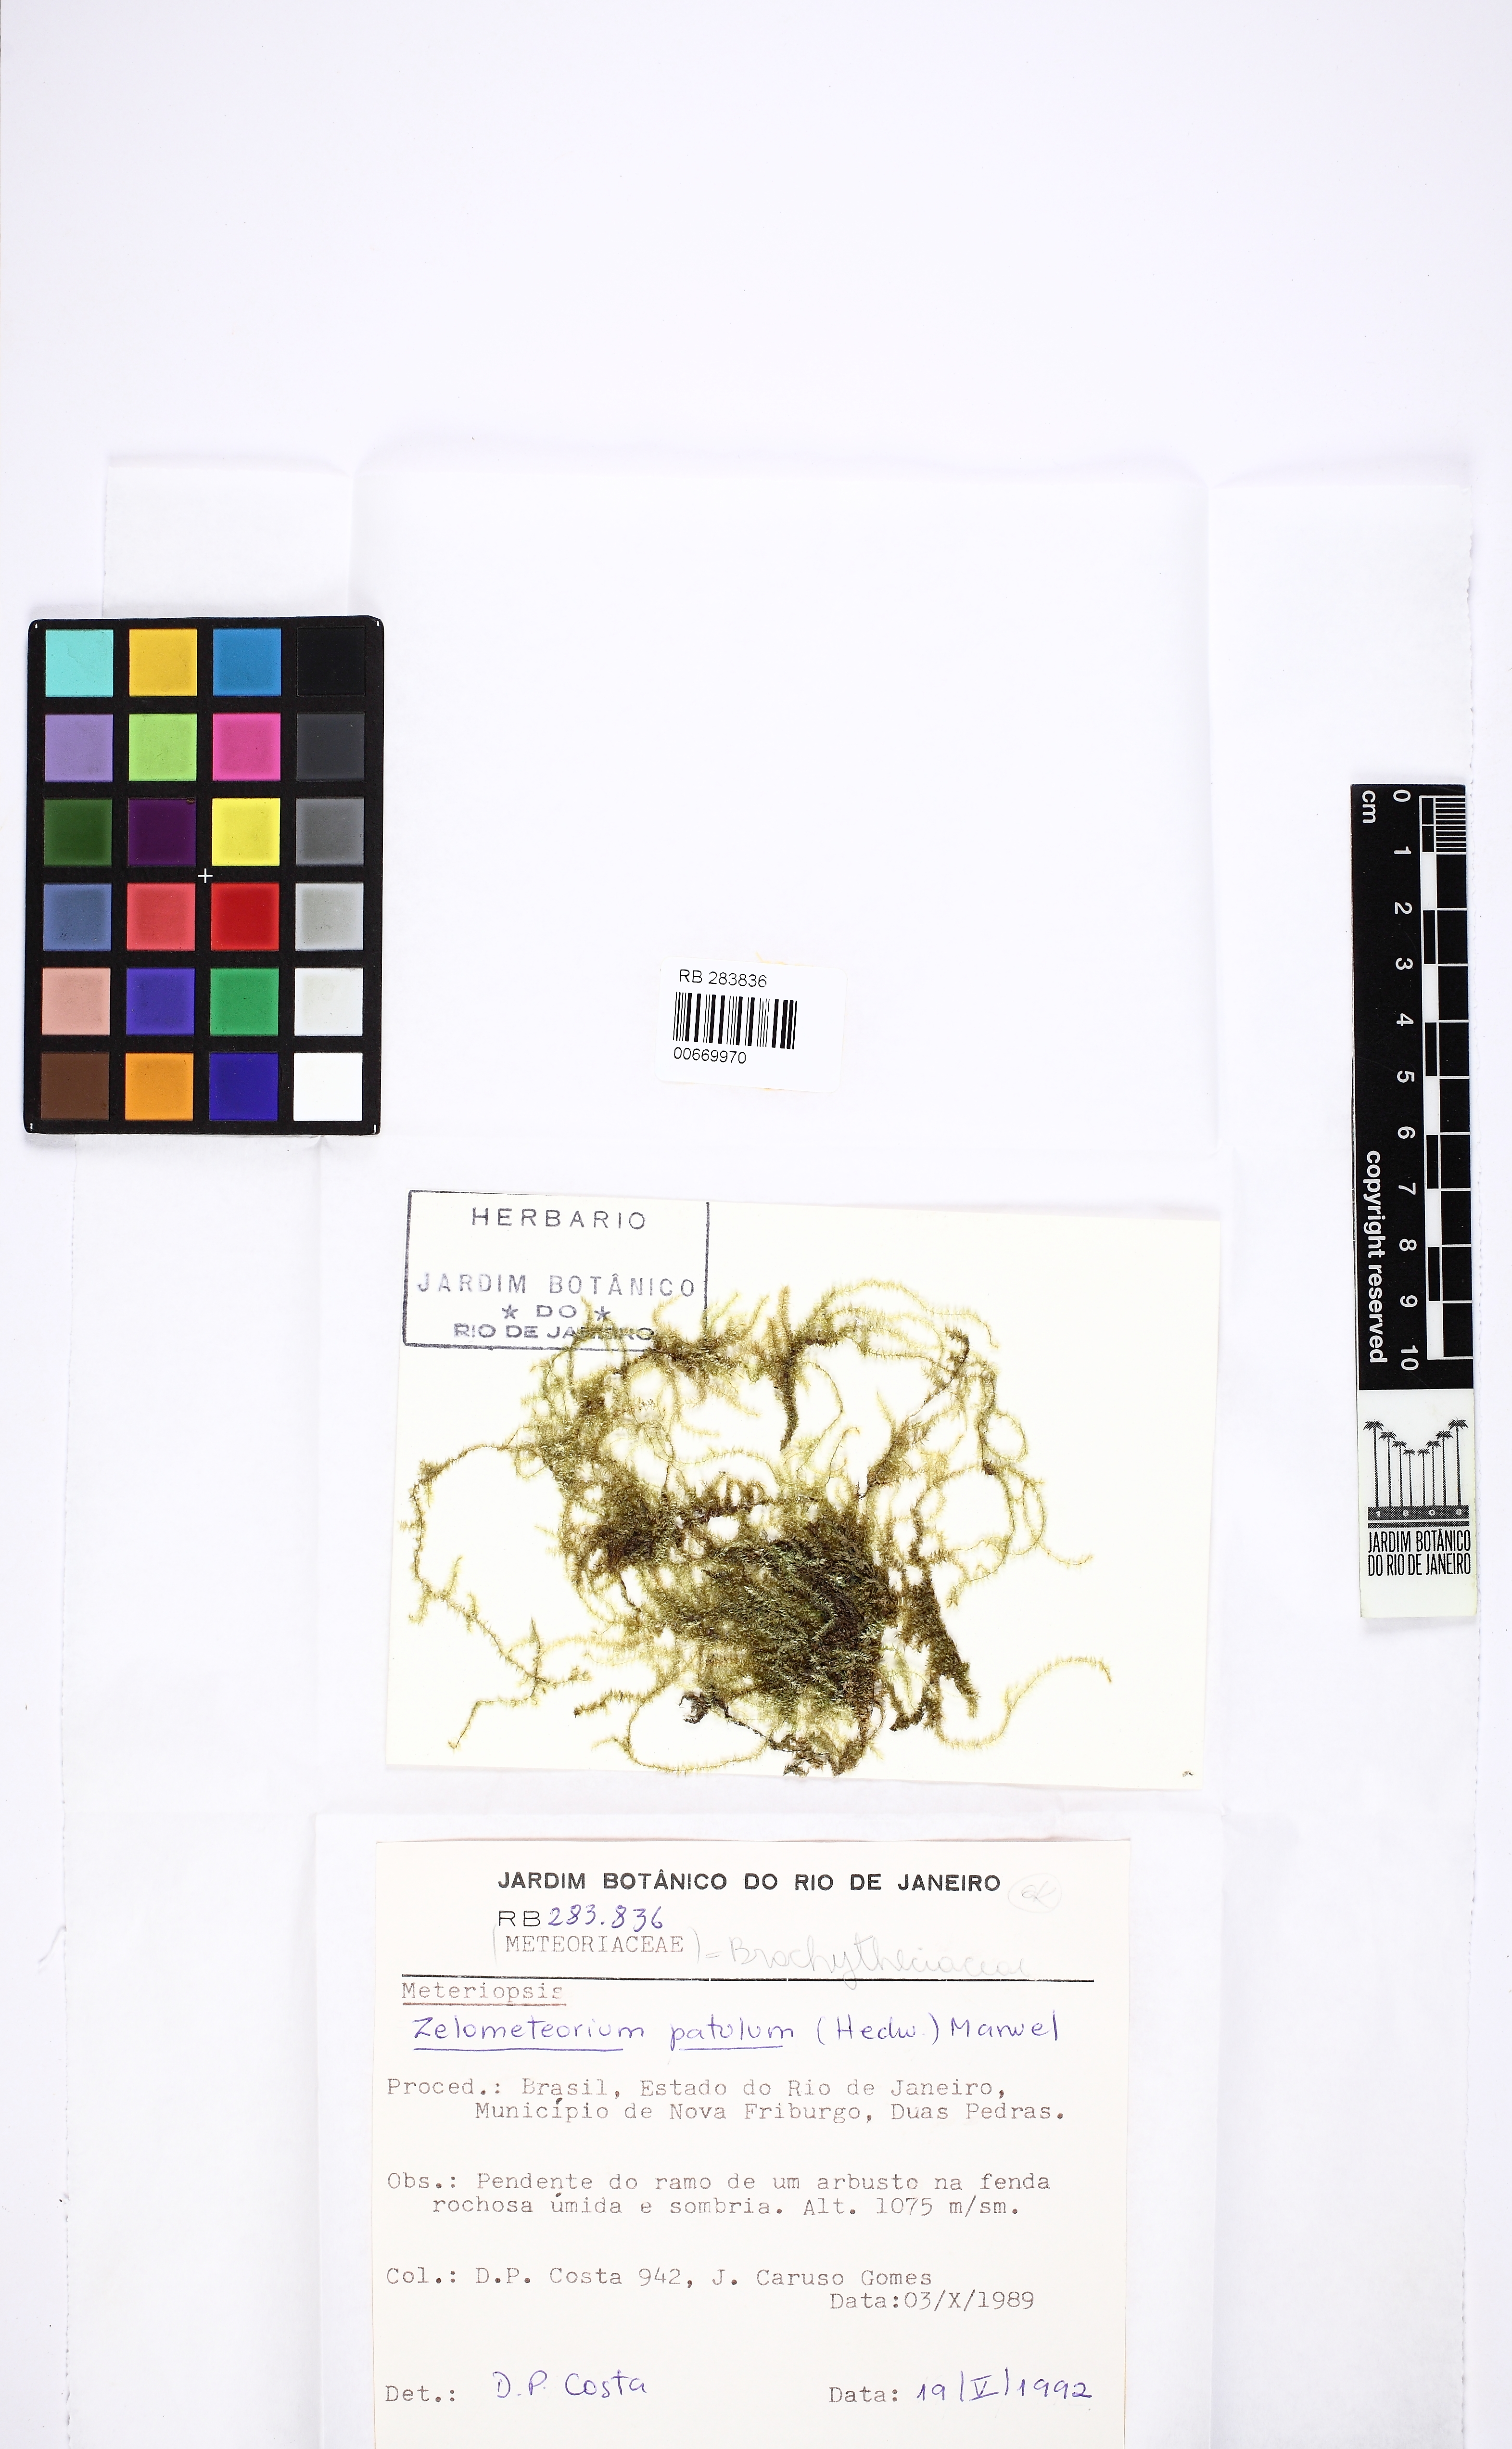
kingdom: Plantae
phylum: Bryophyta
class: Bryopsida
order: Hypnales
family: Brachytheciaceae
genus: Zelometeorium
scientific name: Zelometeorium patulum
